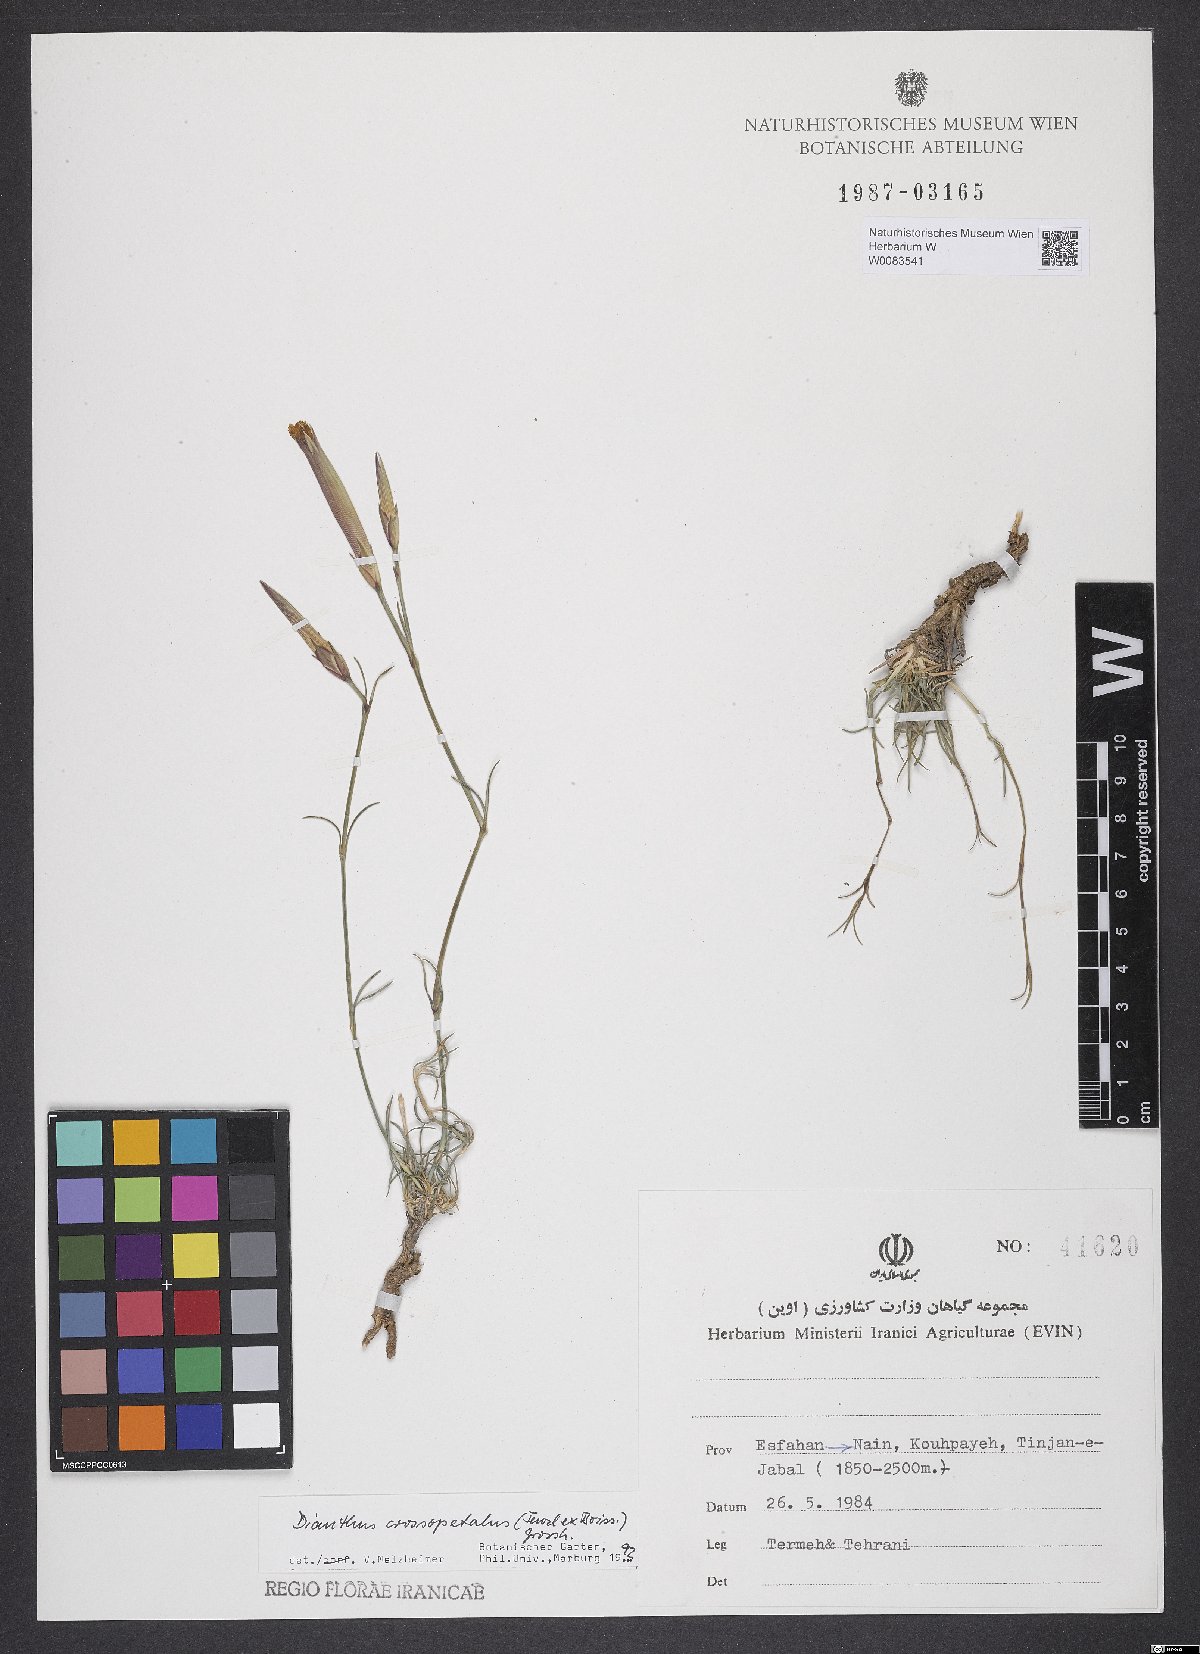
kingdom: Plantae
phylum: Tracheophyta
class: Magnoliopsida
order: Caryophyllales
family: Caryophyllaceae
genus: Dianthus
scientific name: Dianthus crossopetalus
